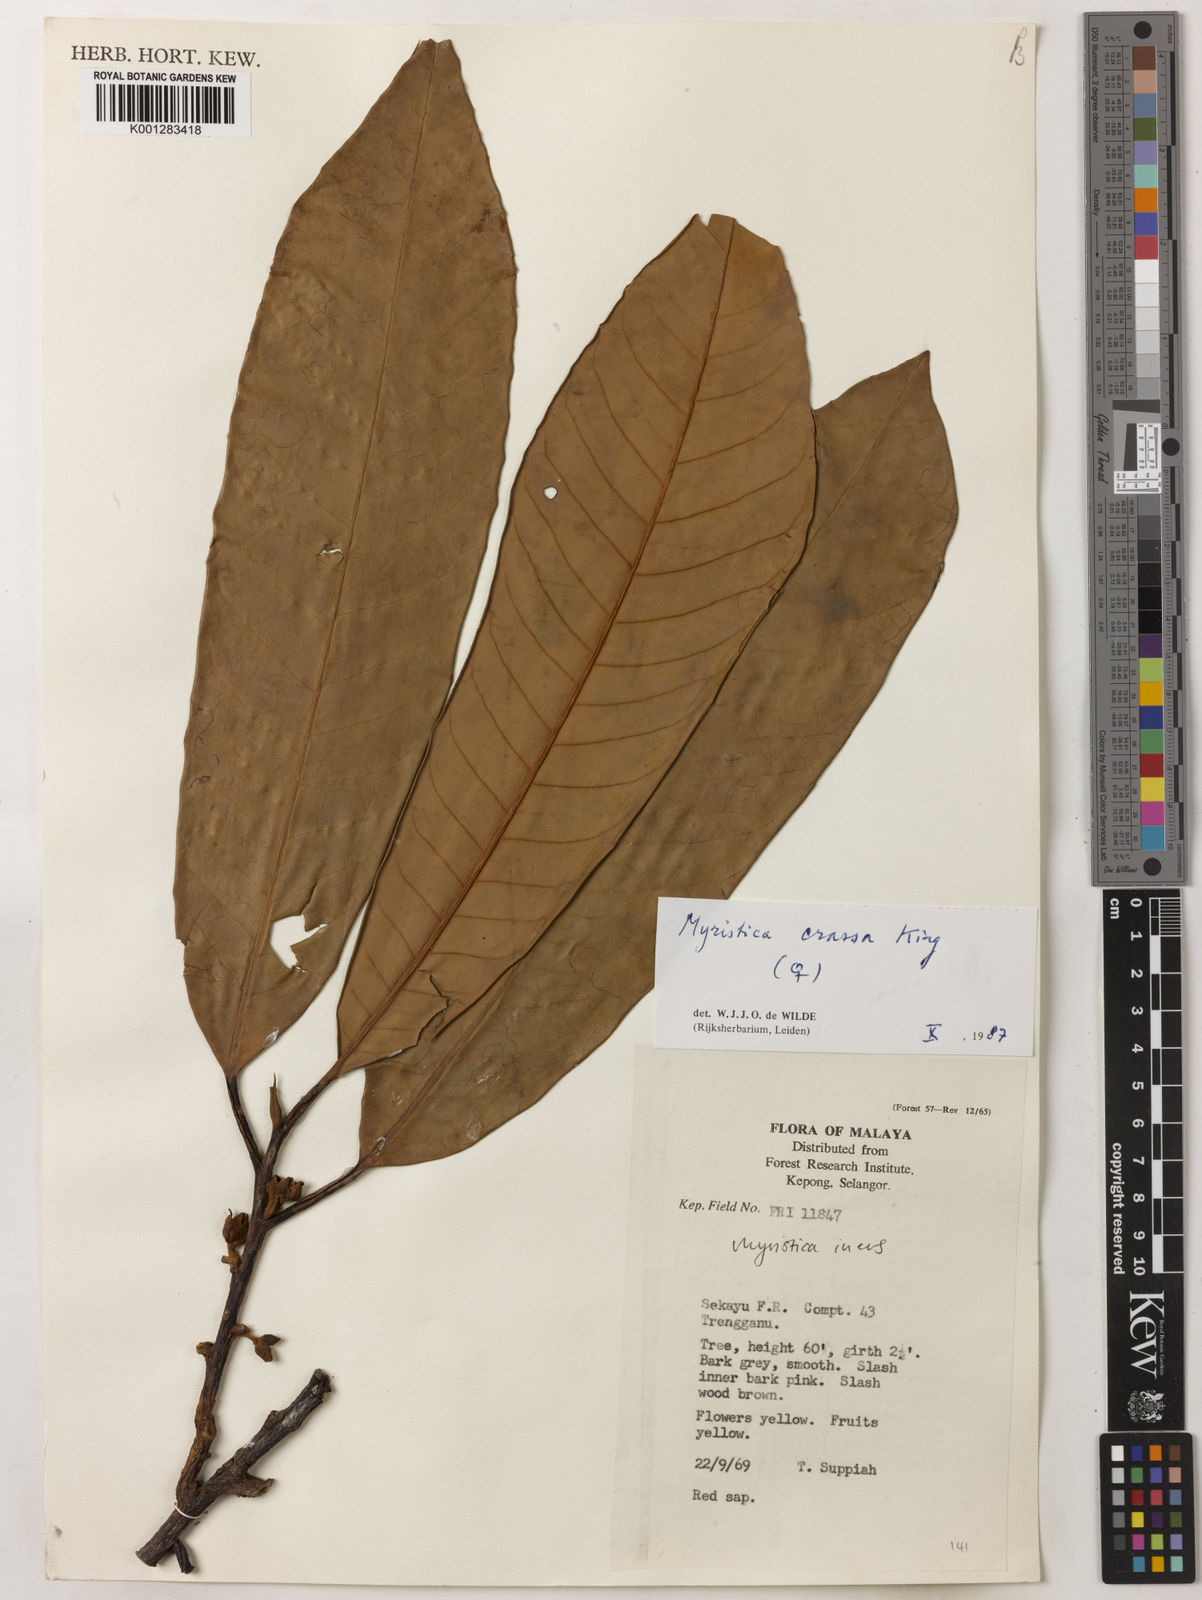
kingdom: Plantae
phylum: Tracheophyta
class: Magnoliopsida
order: Magnoliales
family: Myristicaceae
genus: Myristica
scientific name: Myristica crassa
